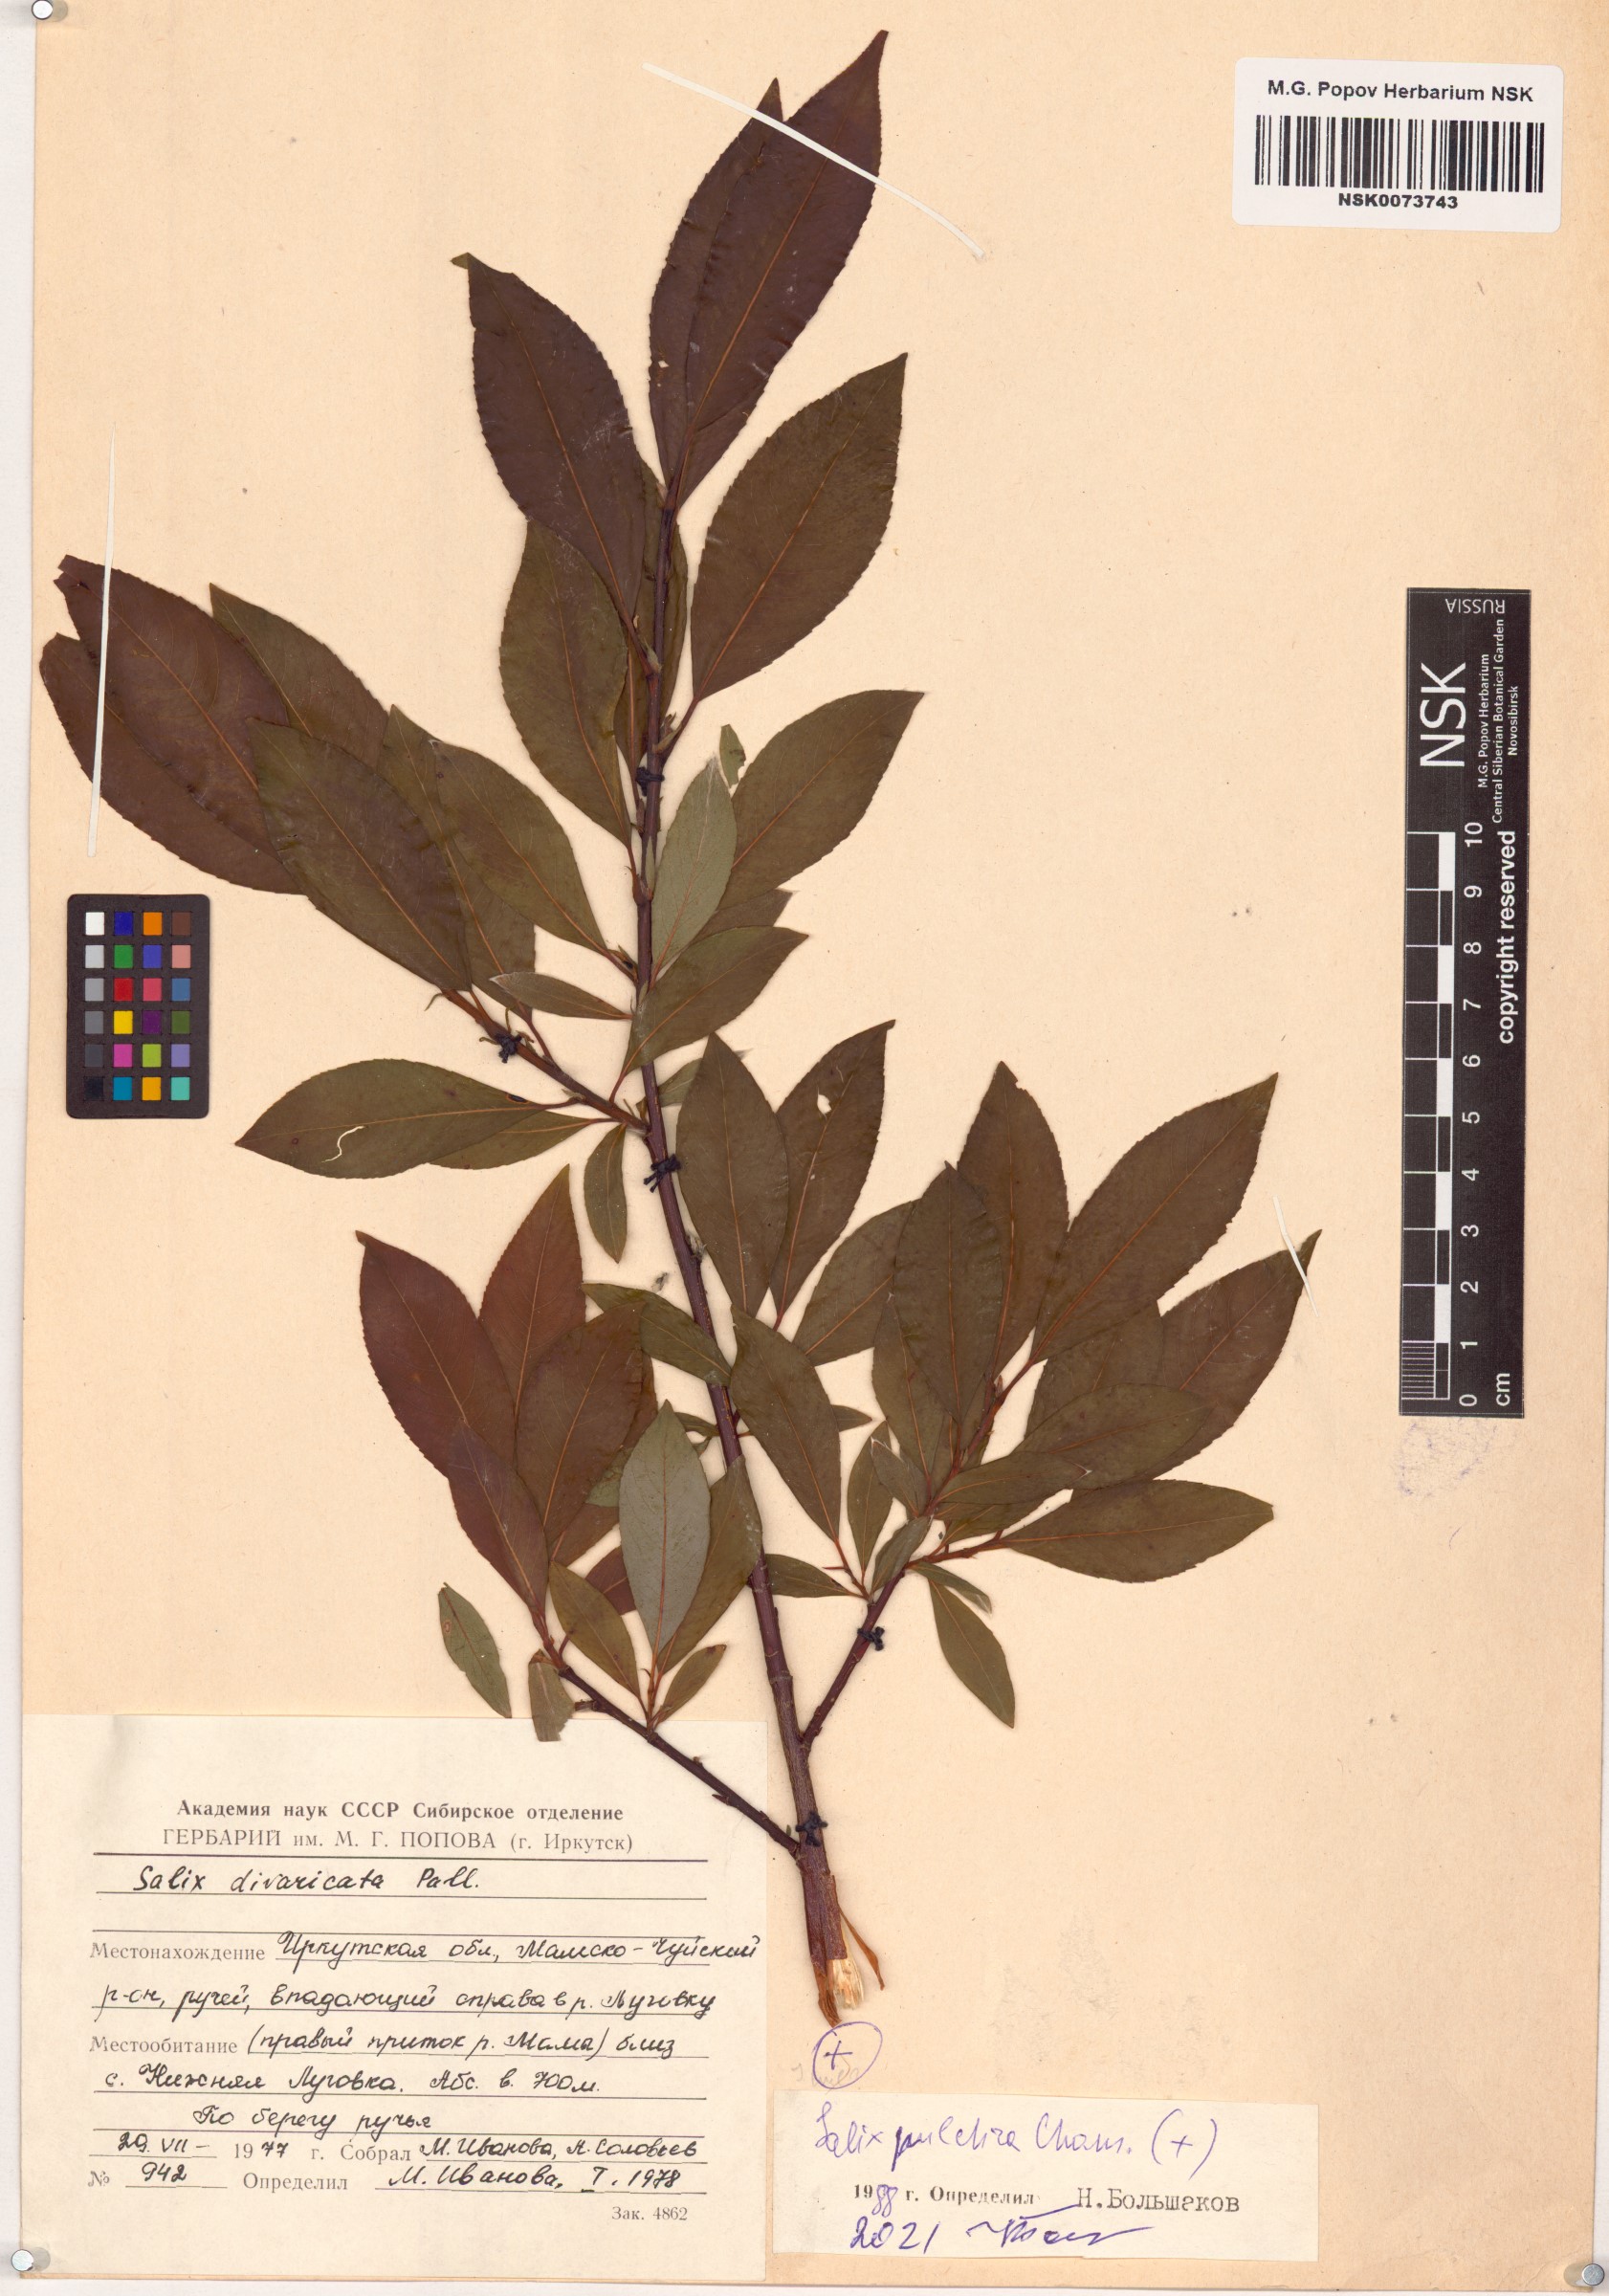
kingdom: Plantae
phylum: Tracheophyta
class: Magnoliopsida
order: Malpighiales
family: Salicaceae
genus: Salix
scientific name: Salix pulchra
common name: Diamond-leaved willow
